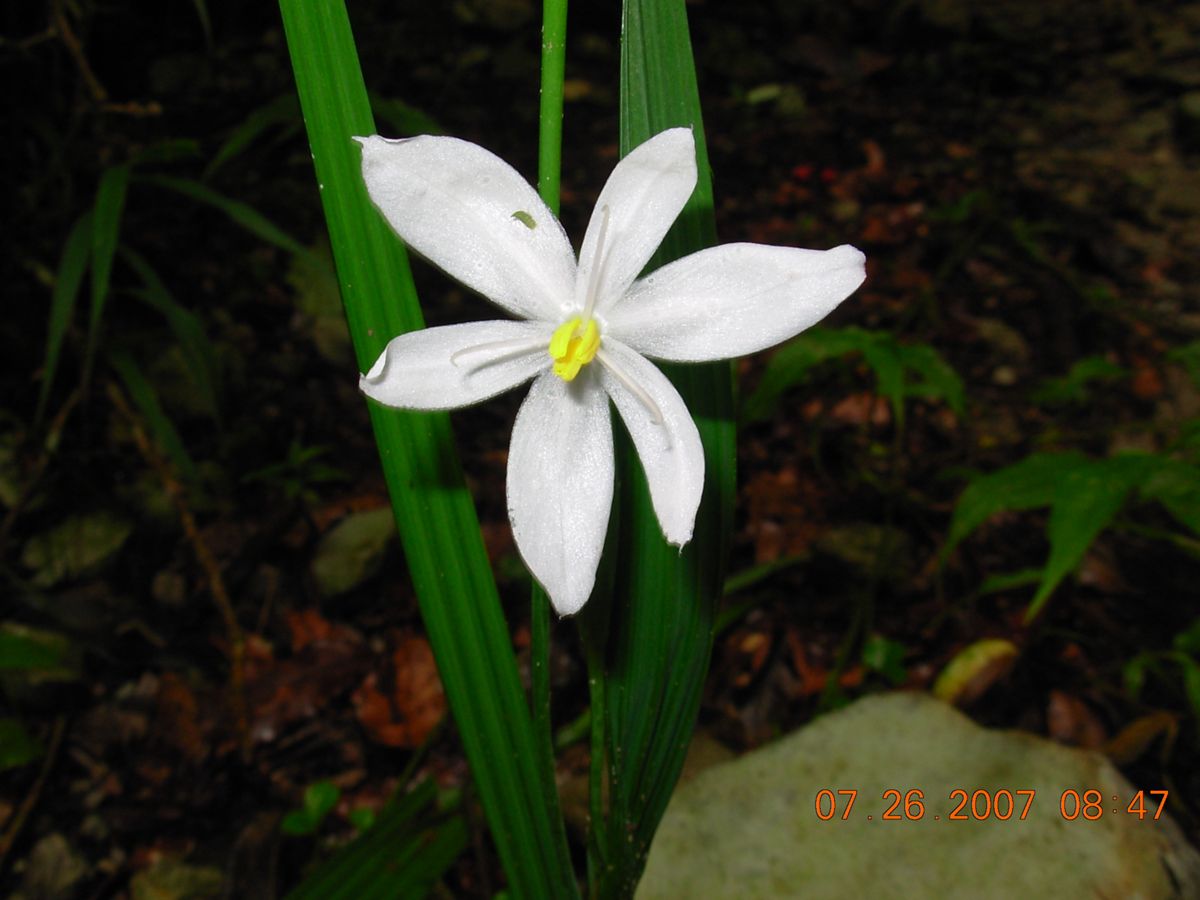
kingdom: Plantae
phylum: Tracheophyta
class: Liliopsida
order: Asparagales
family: Iridaceae
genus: Cipura
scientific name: Cipura campanulata
